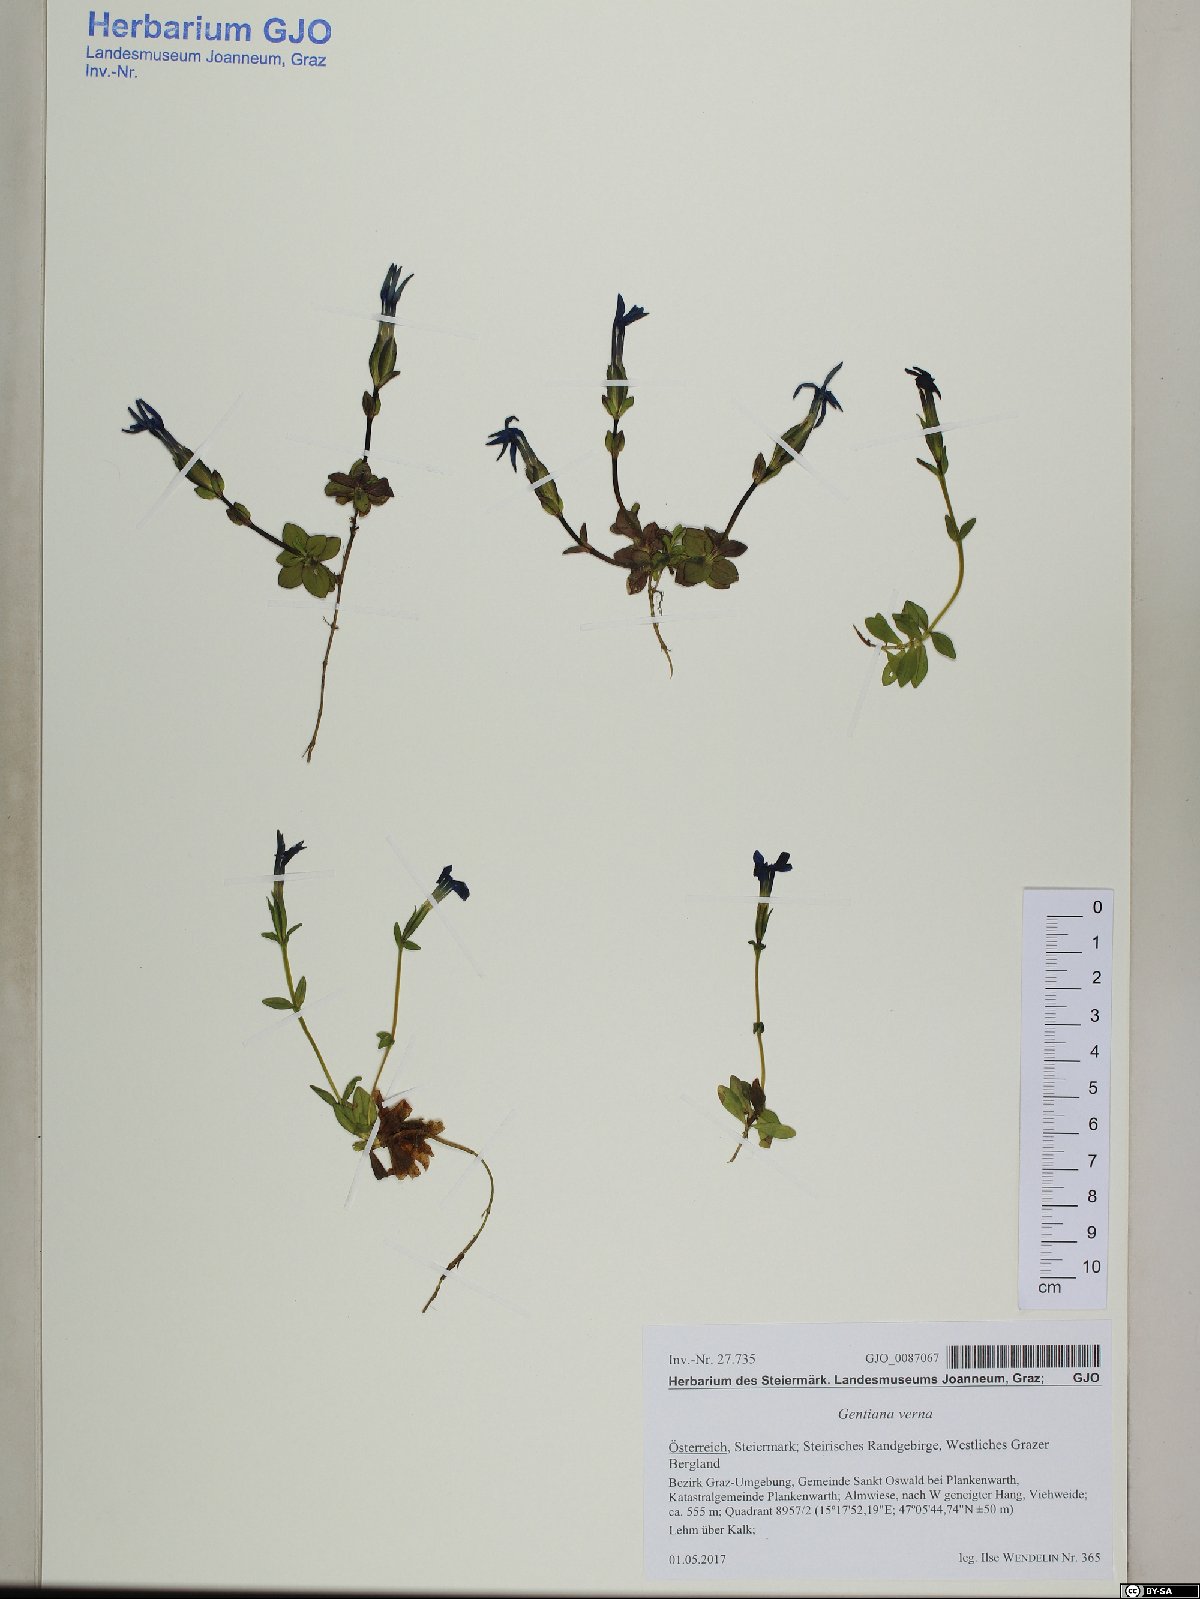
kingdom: Plantae
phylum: Tracheophyta
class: Magnoliopsida
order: Gentianales
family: Gentianaceae
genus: Gentiana
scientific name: Gentiana verna
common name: Spring gentian
